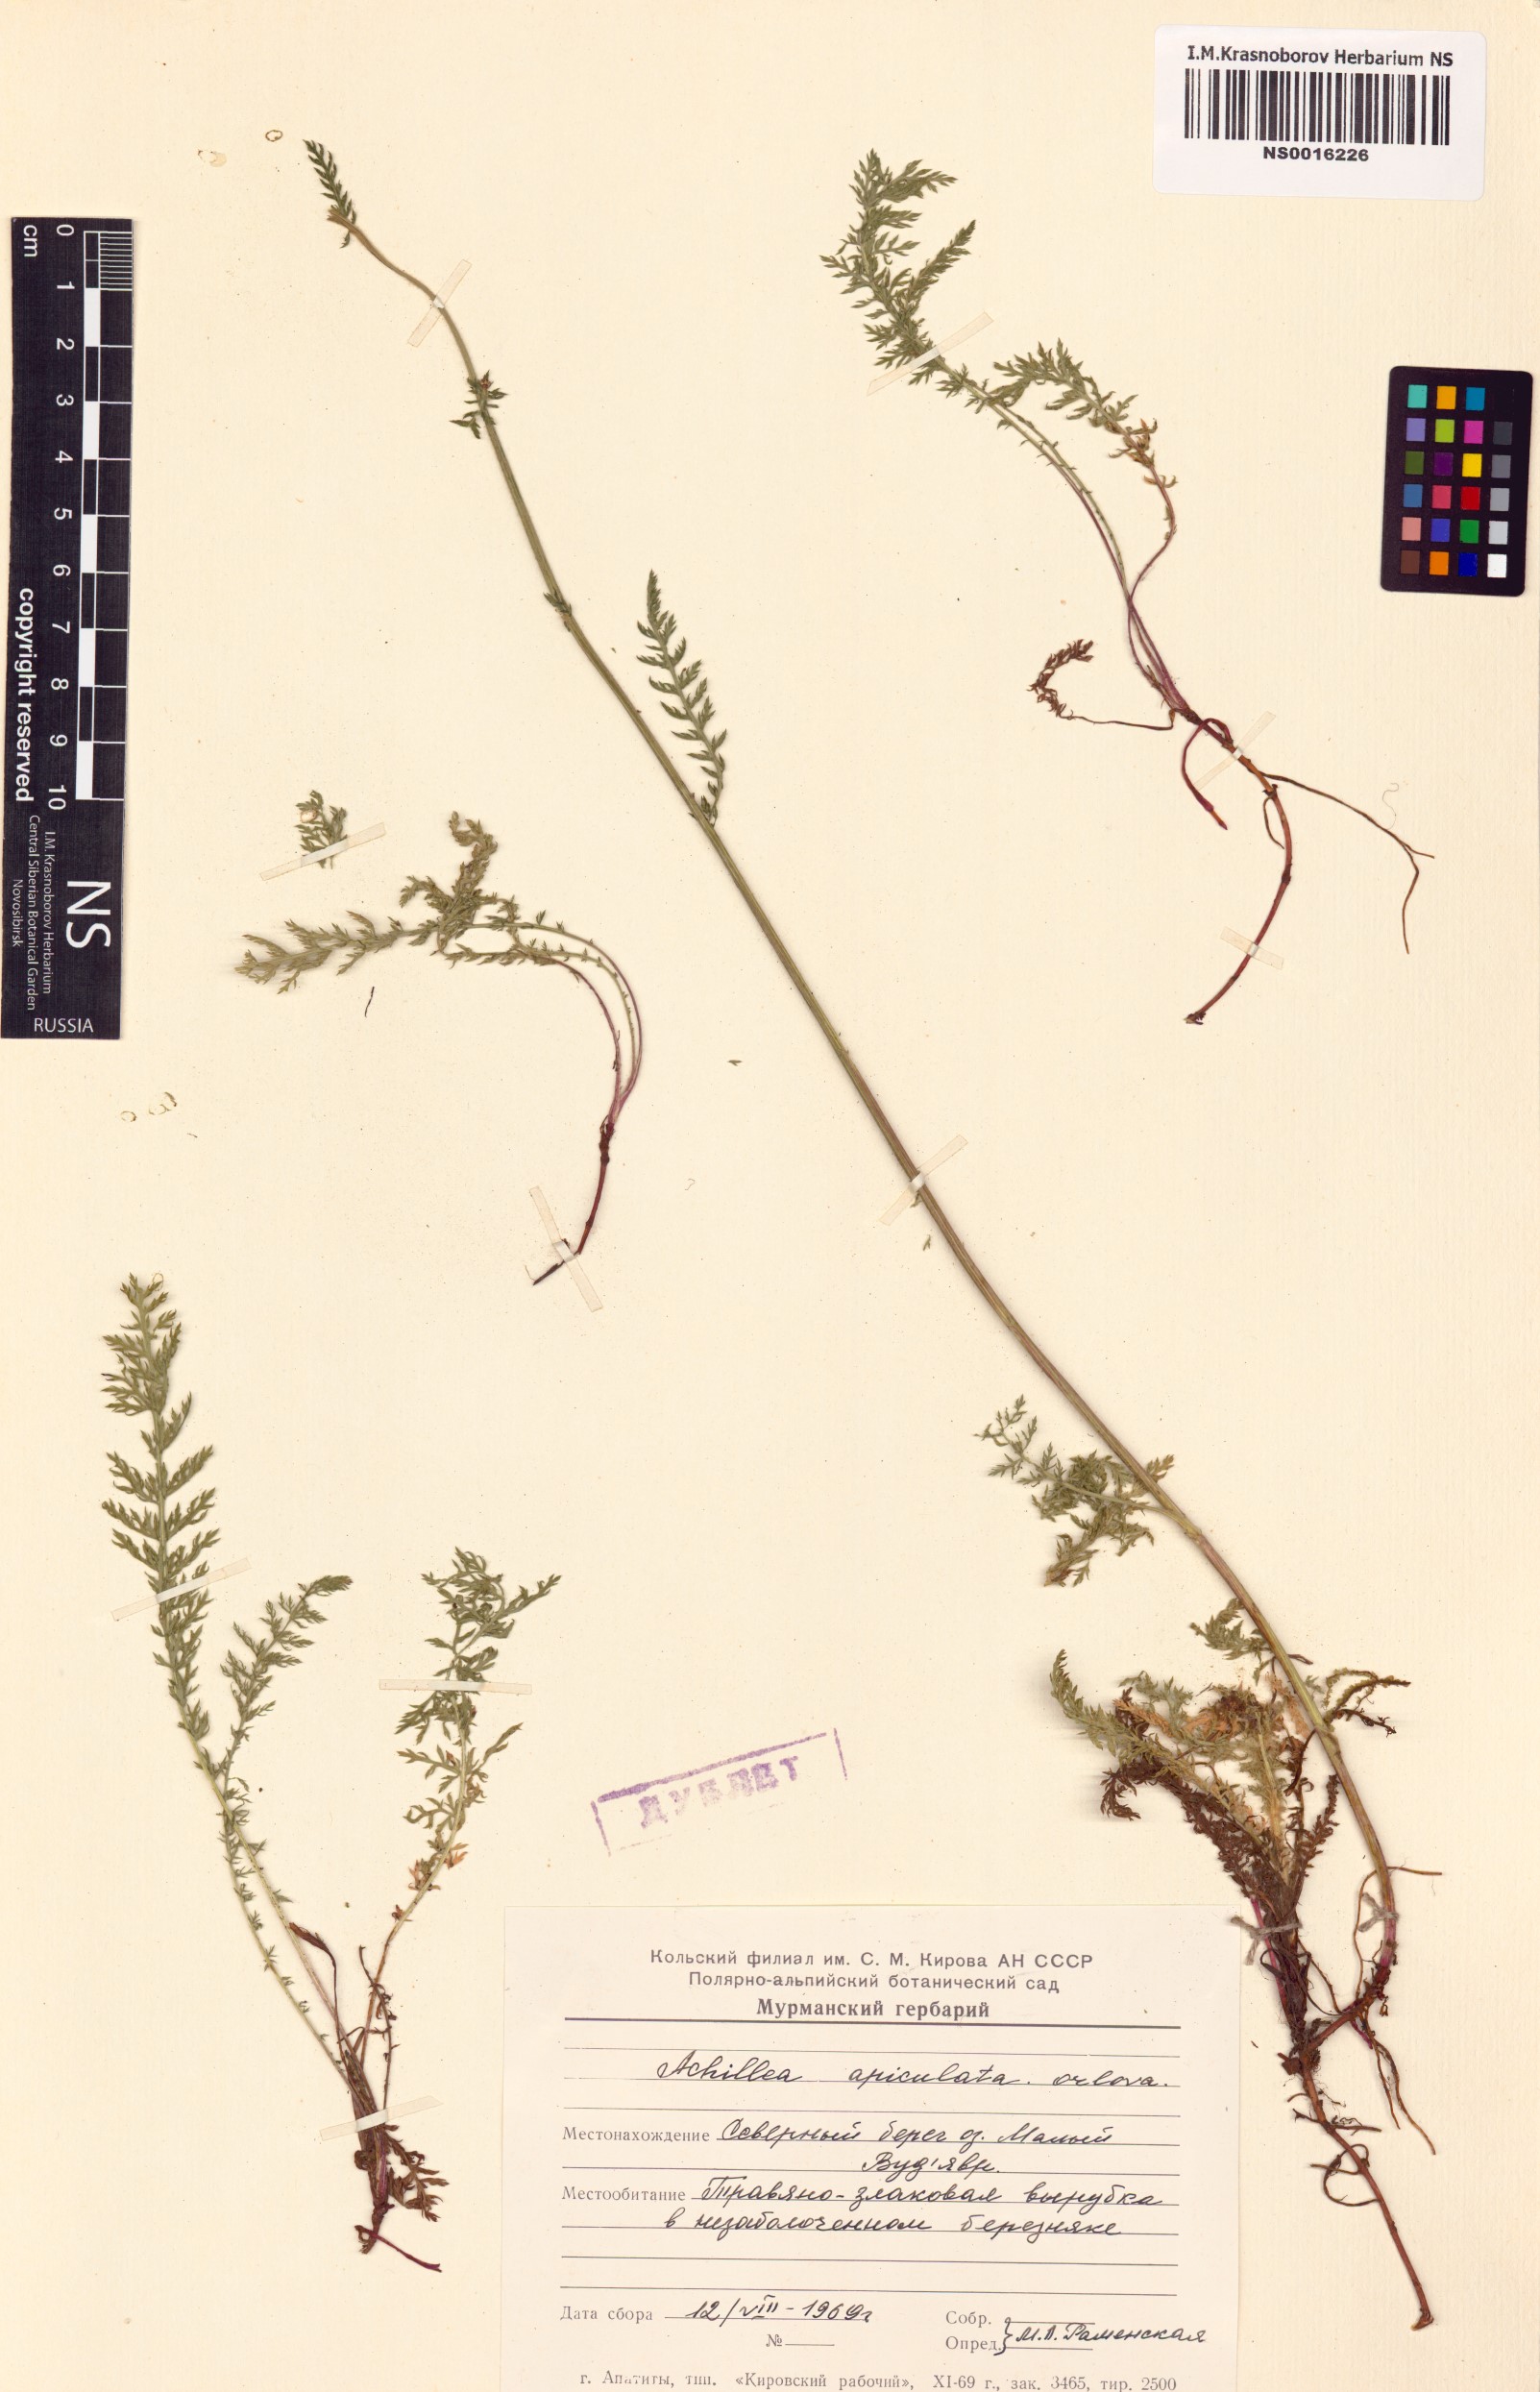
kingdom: Plantae
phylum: Tracheophyta
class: Magnoliopsida
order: Asterales
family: Asteraceae
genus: Achillea
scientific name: Achillea apiculata
